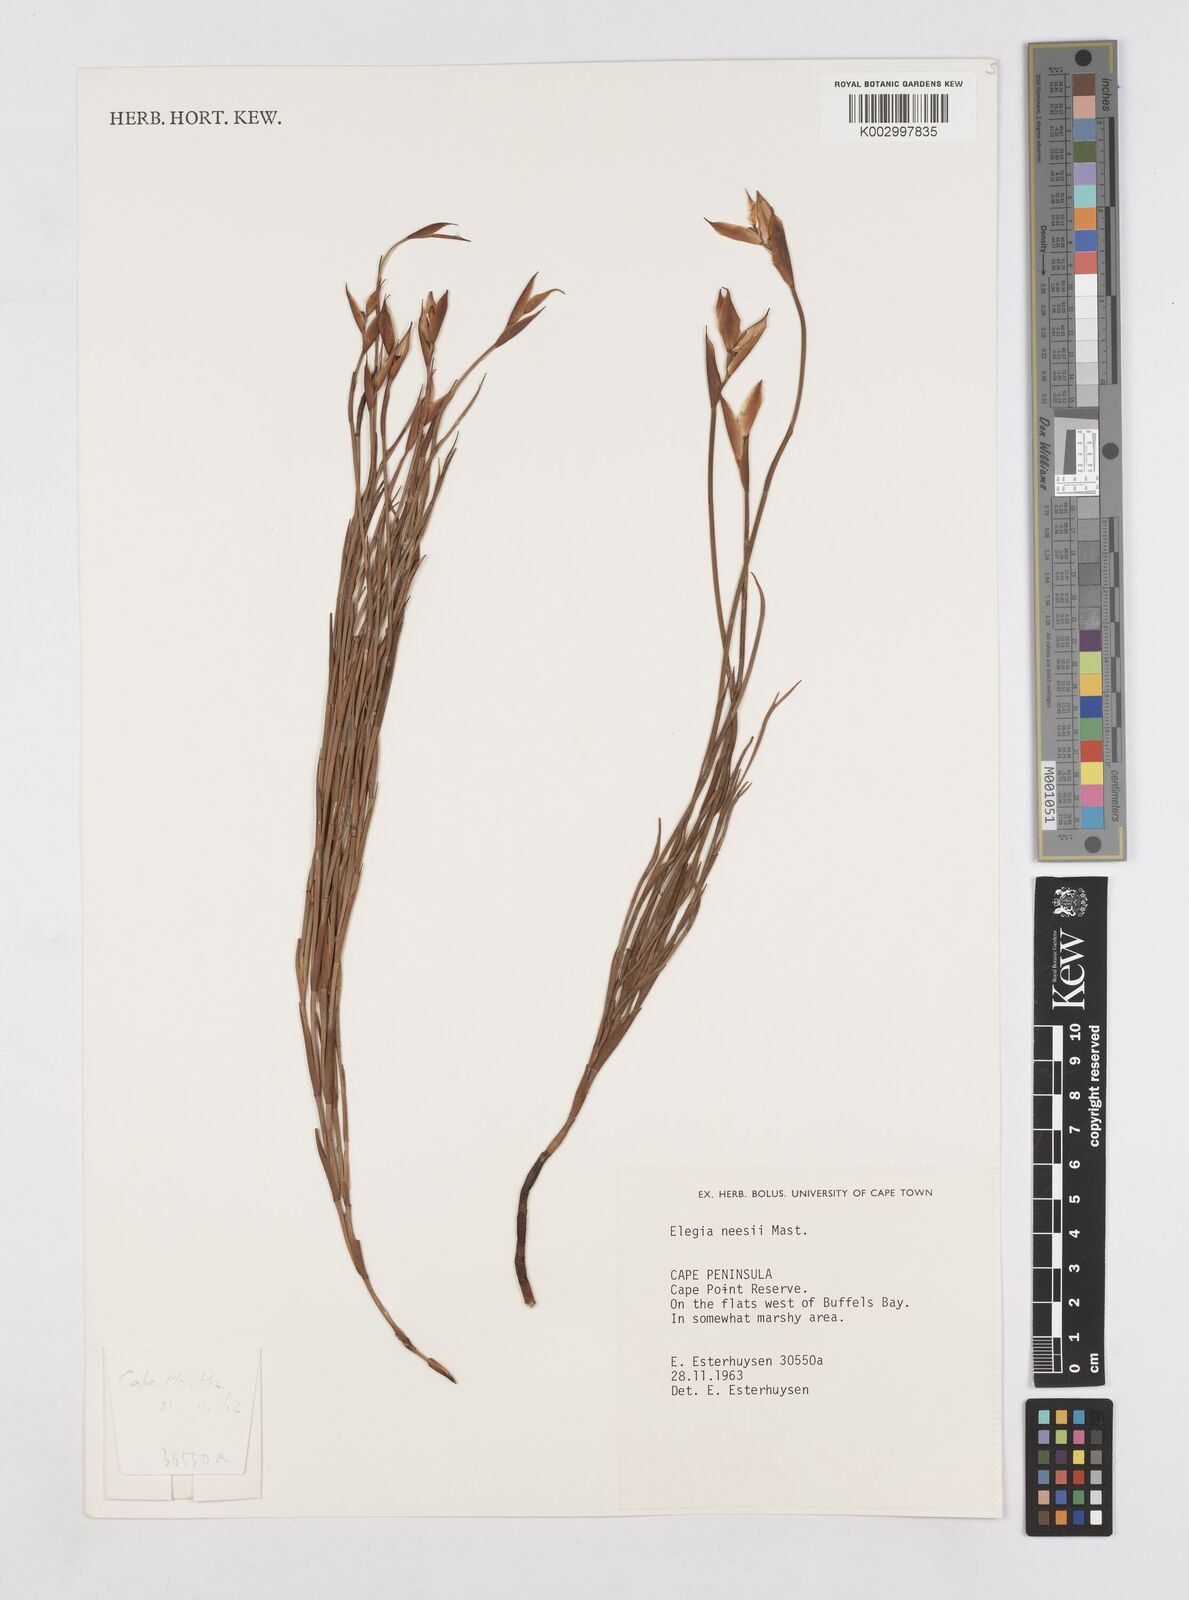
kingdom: Plantae
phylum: Tracheophyta
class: Liliopsida
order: Poales
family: Restionaceae
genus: Elegia
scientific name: Elegia neesii
